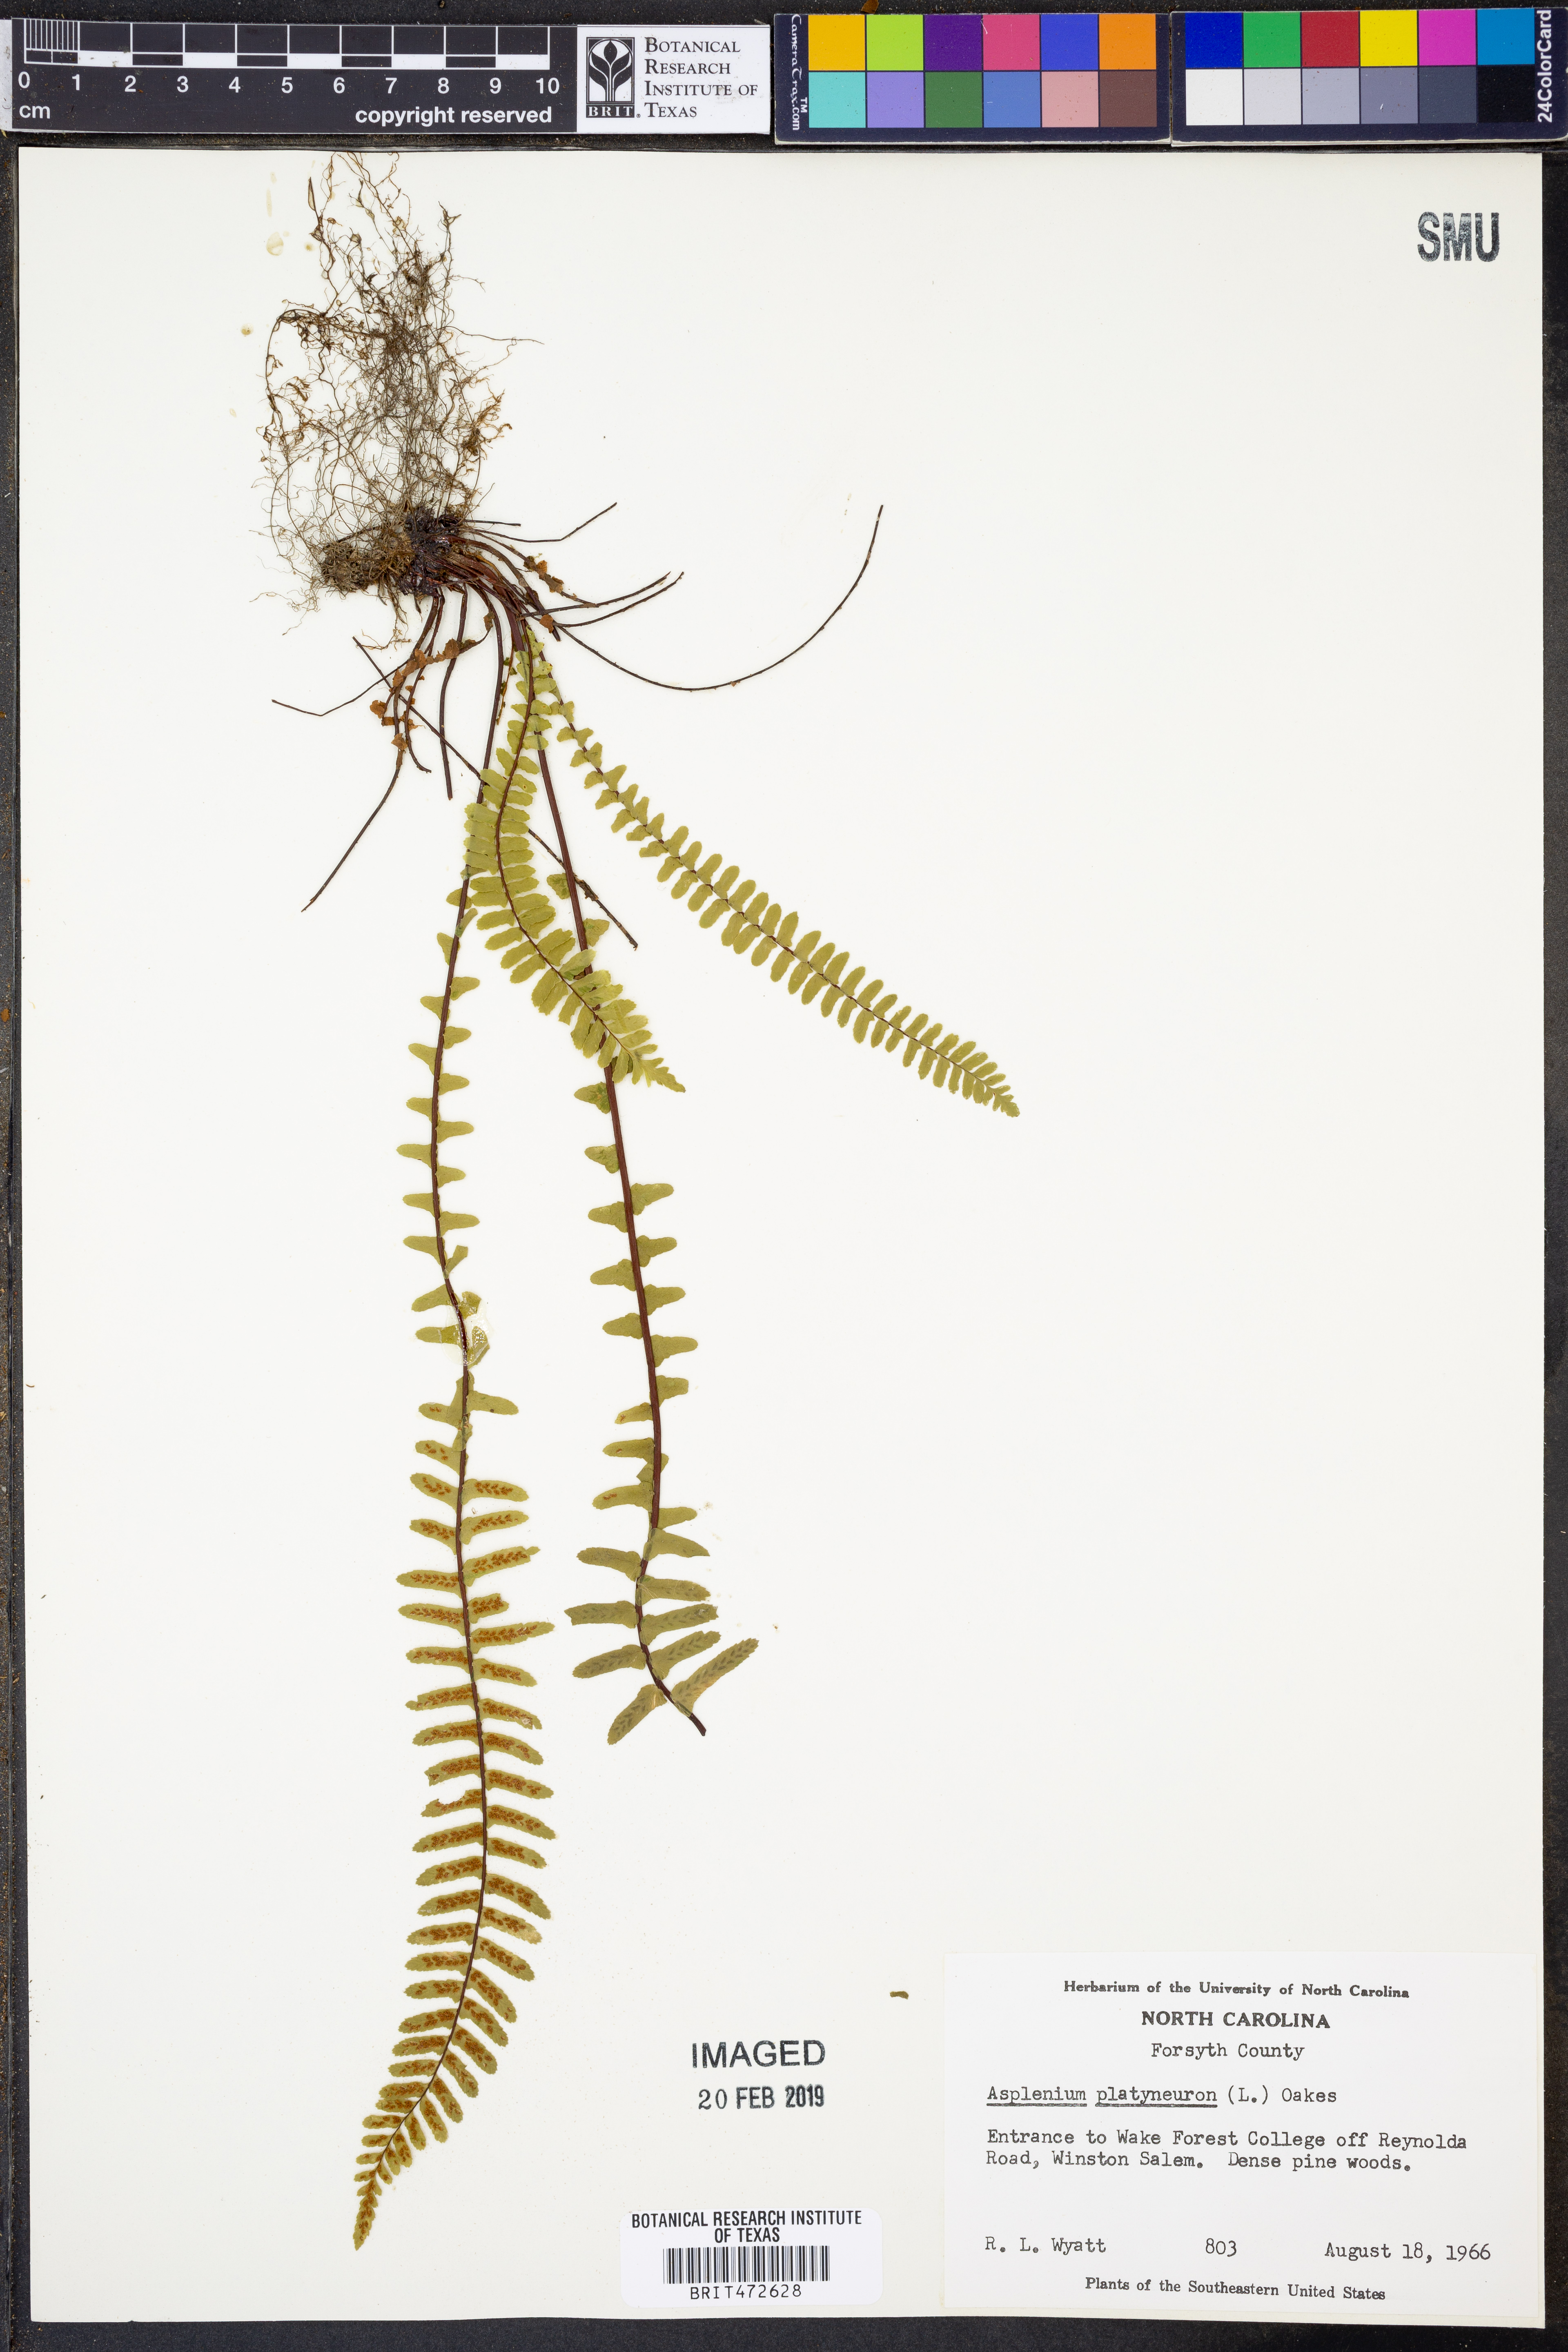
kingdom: Plantae
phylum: Tracheophyta
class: Polypodiopsida
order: Polypodiales
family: Aspleniaceae
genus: Asplenium
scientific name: Asplenium platyneuron
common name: Ebony spleenwort
